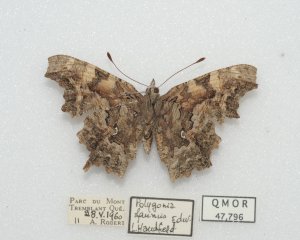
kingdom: Animalia
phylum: Arthropoda
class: Insecta
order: Lepidoptera
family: Nymphalidae
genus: Polygonia
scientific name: Polygonia faunus
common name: Green Comma
